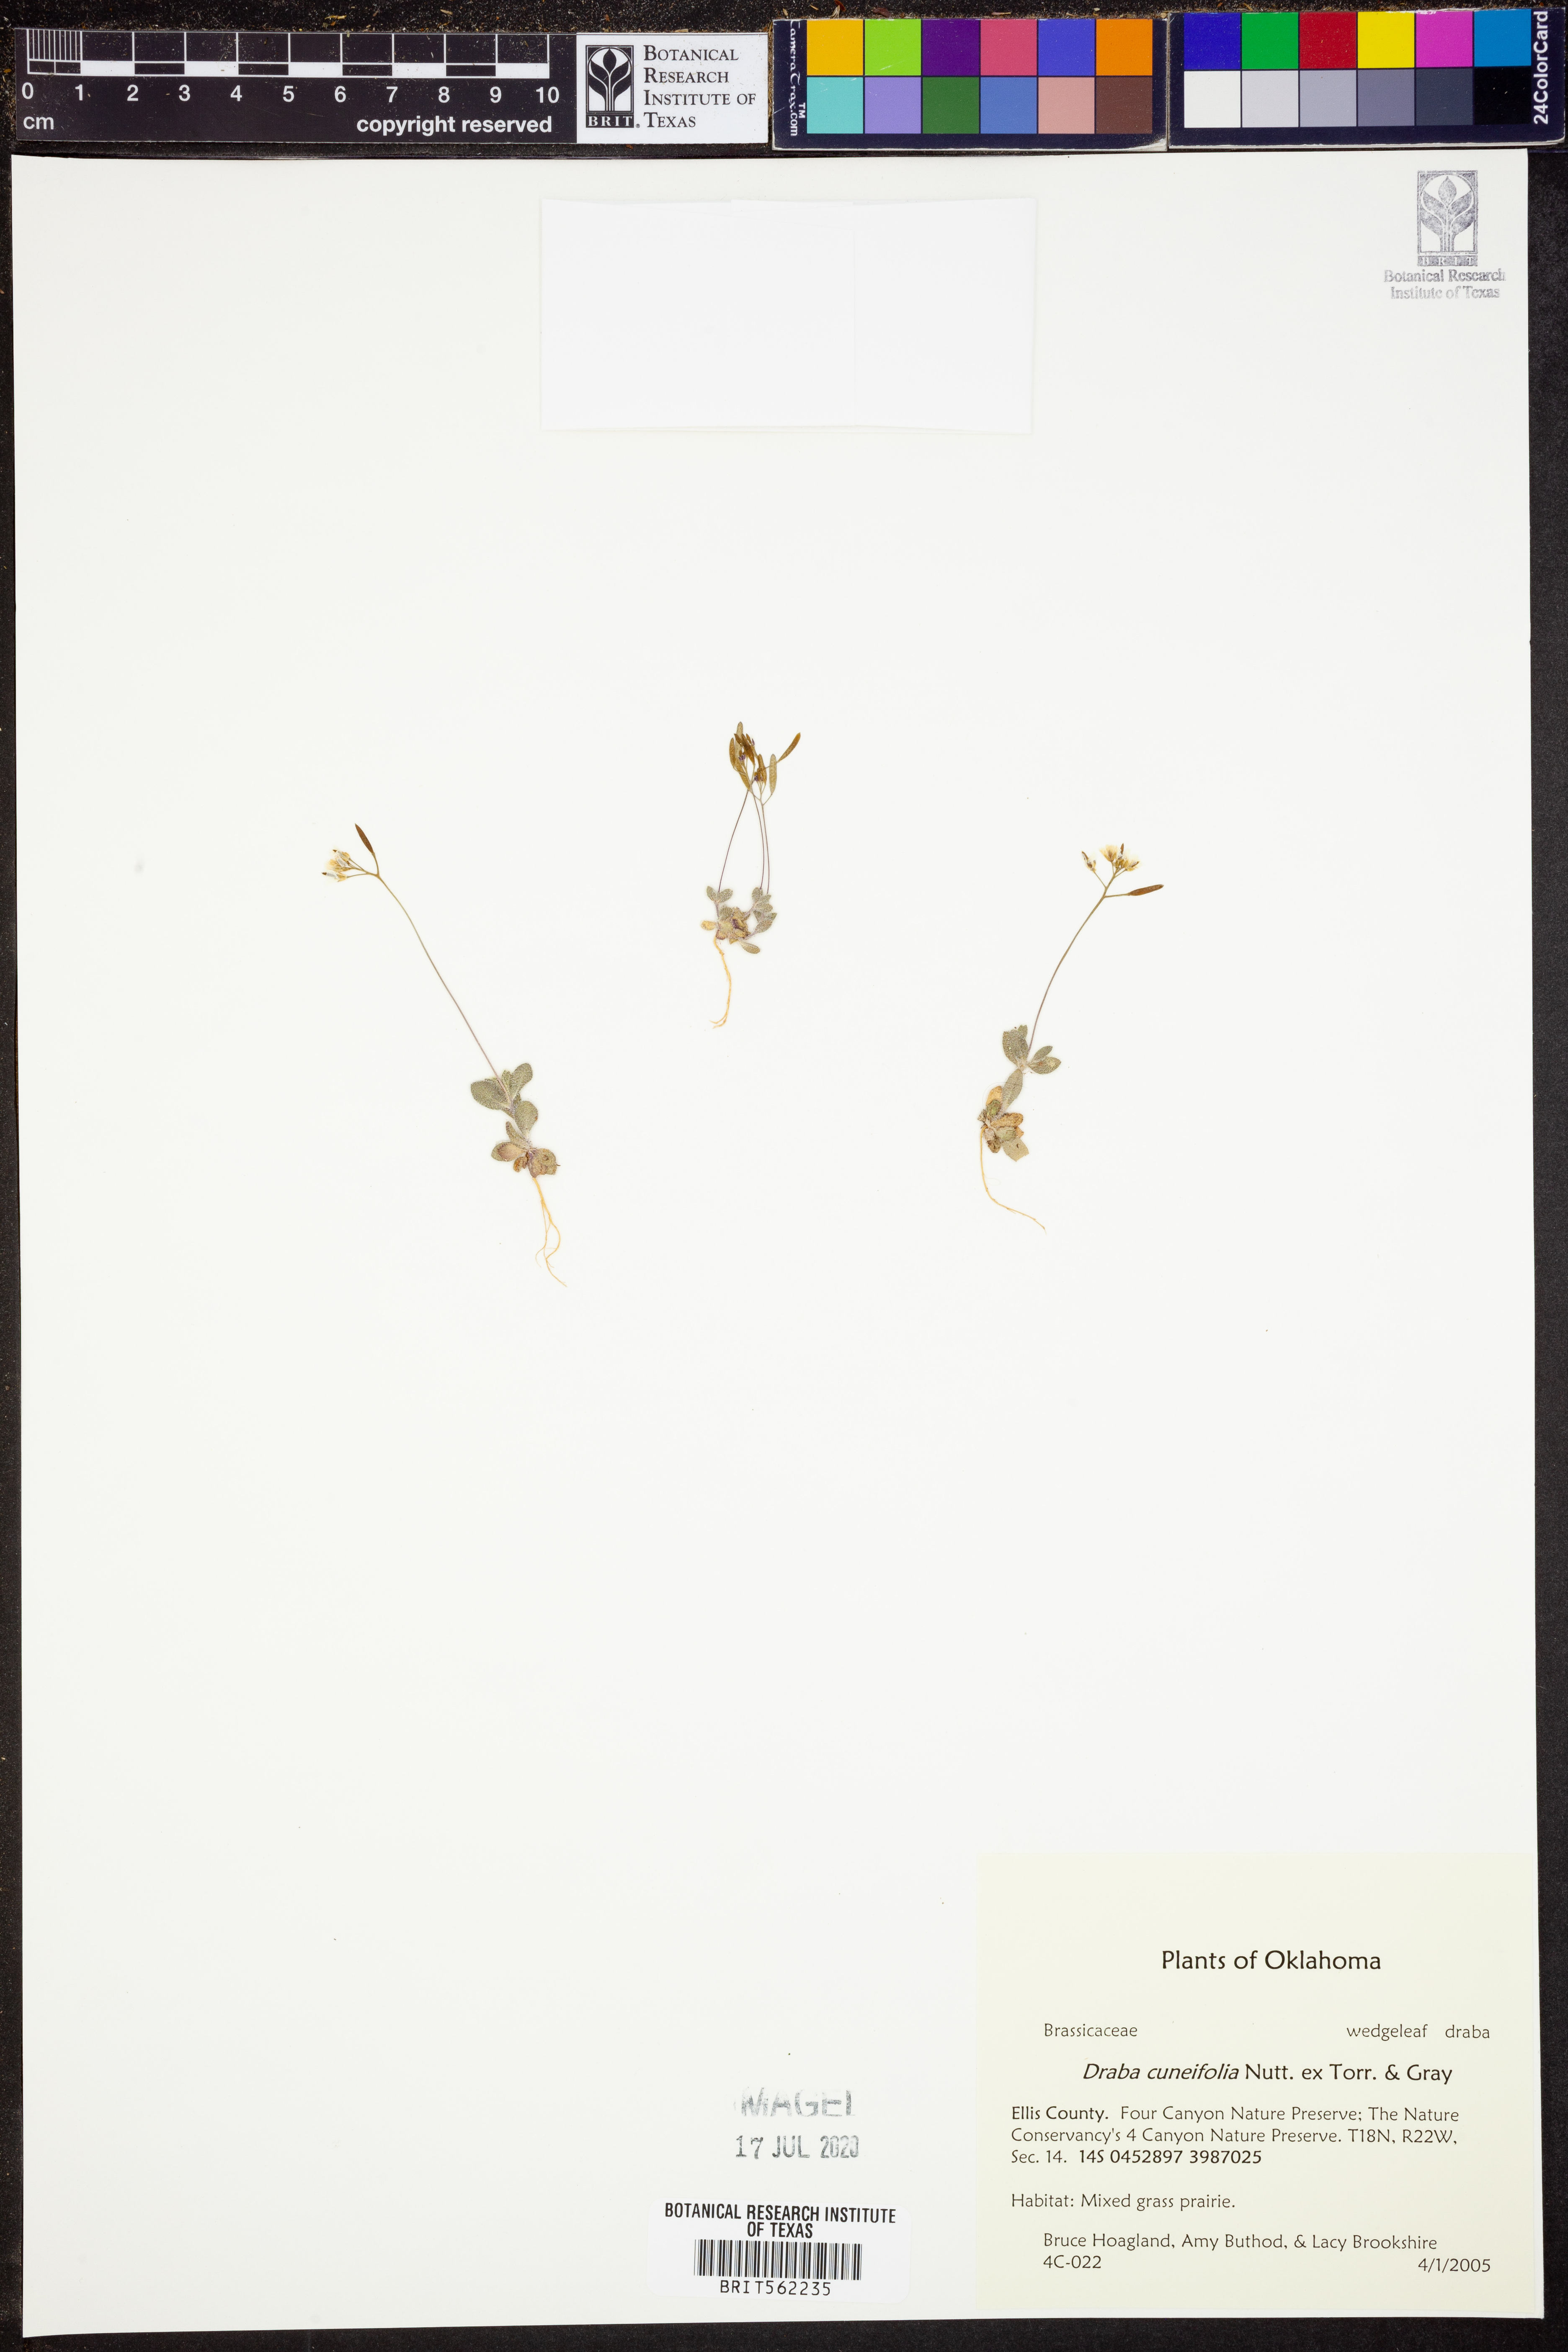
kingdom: Plantae
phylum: Tracheophyta
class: Magnoliopsida
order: Brassicales
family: Brassicaceae
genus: Tomostima
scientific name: Tomostima cuneifolia
